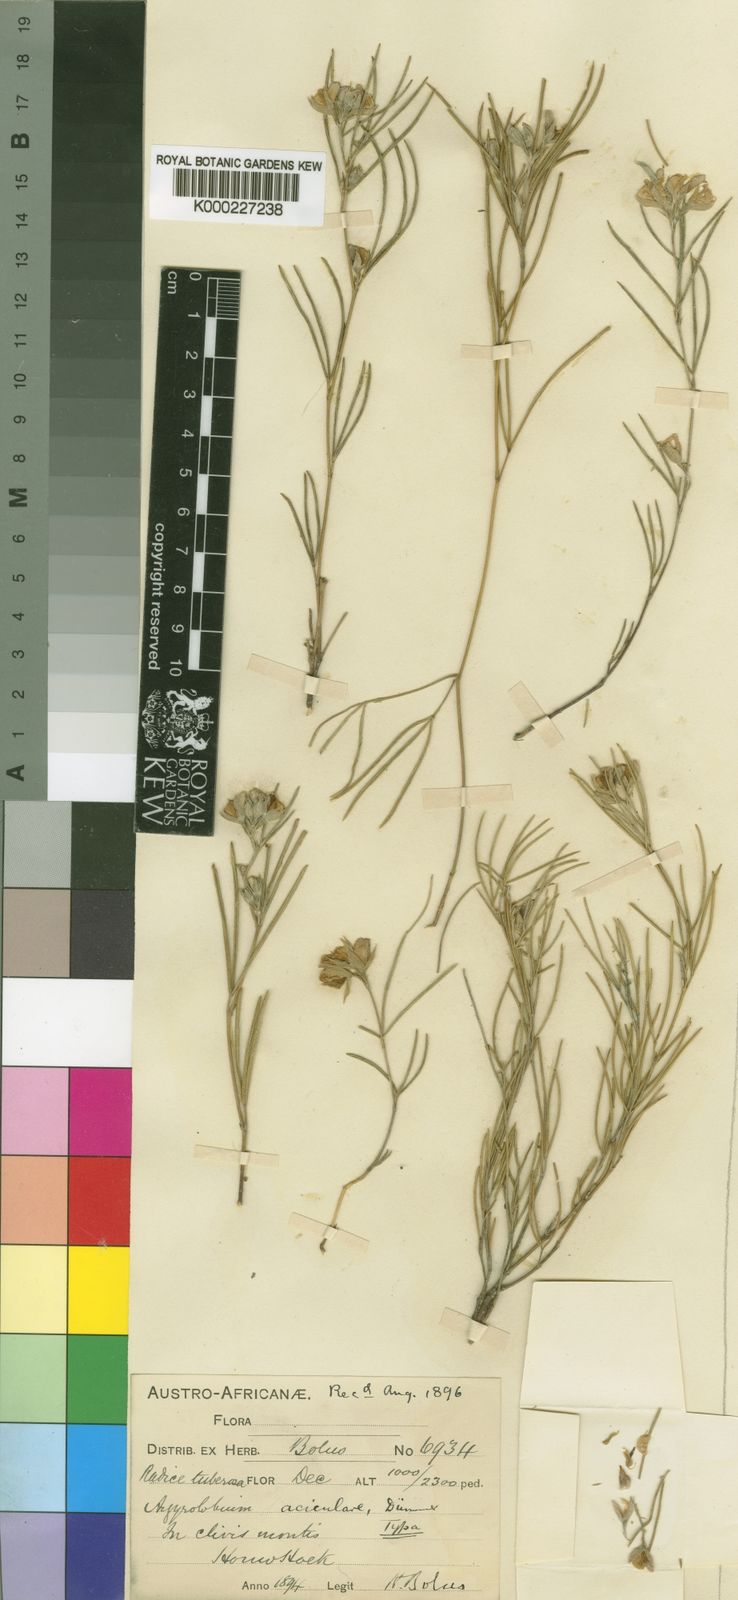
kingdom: Plantae
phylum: Tracheophyta
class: Magnoliopsida
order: Fabales
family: Fabaceae
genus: Argyrolobium
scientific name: Argyrolobium filifolia
